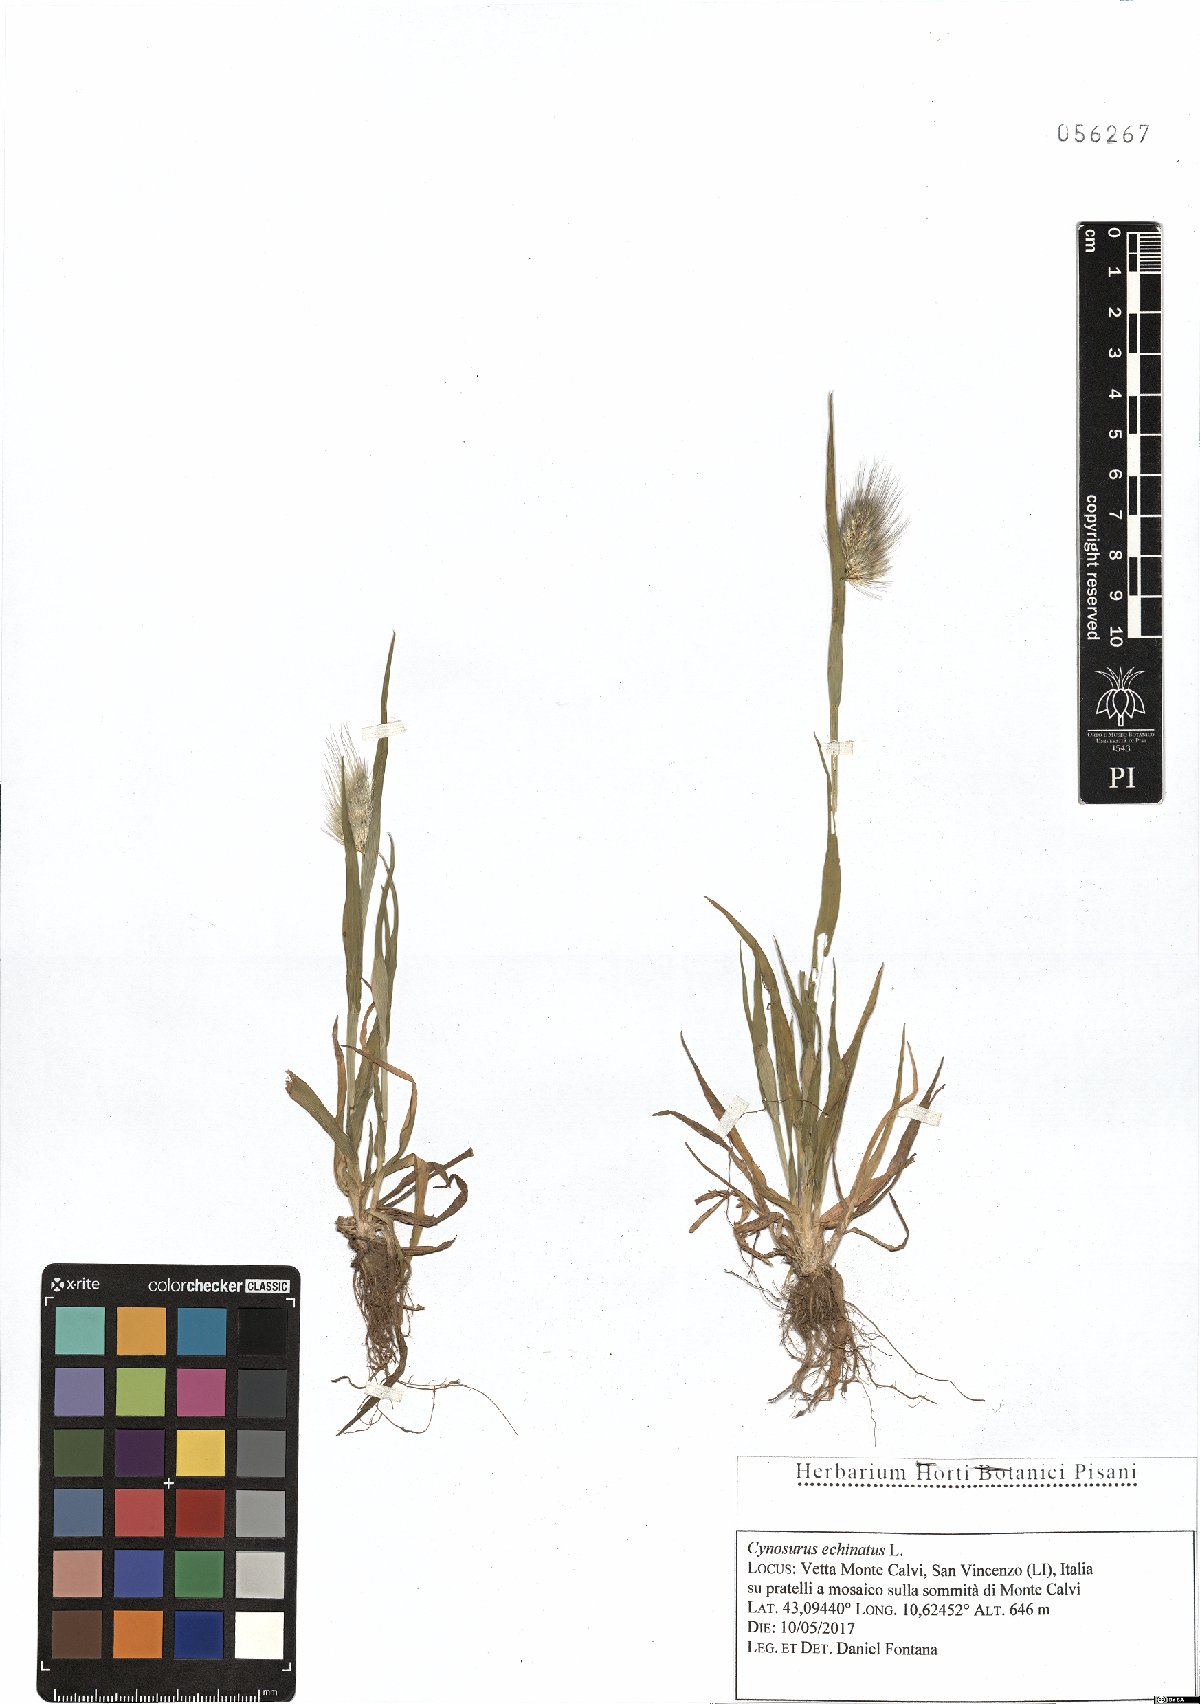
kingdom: Plantae
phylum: Tracheophyta
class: Liliopsida
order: Poales
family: Poaceae
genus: Cynosurus
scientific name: Cynosurus echinatus
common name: Rough dog's-tail
